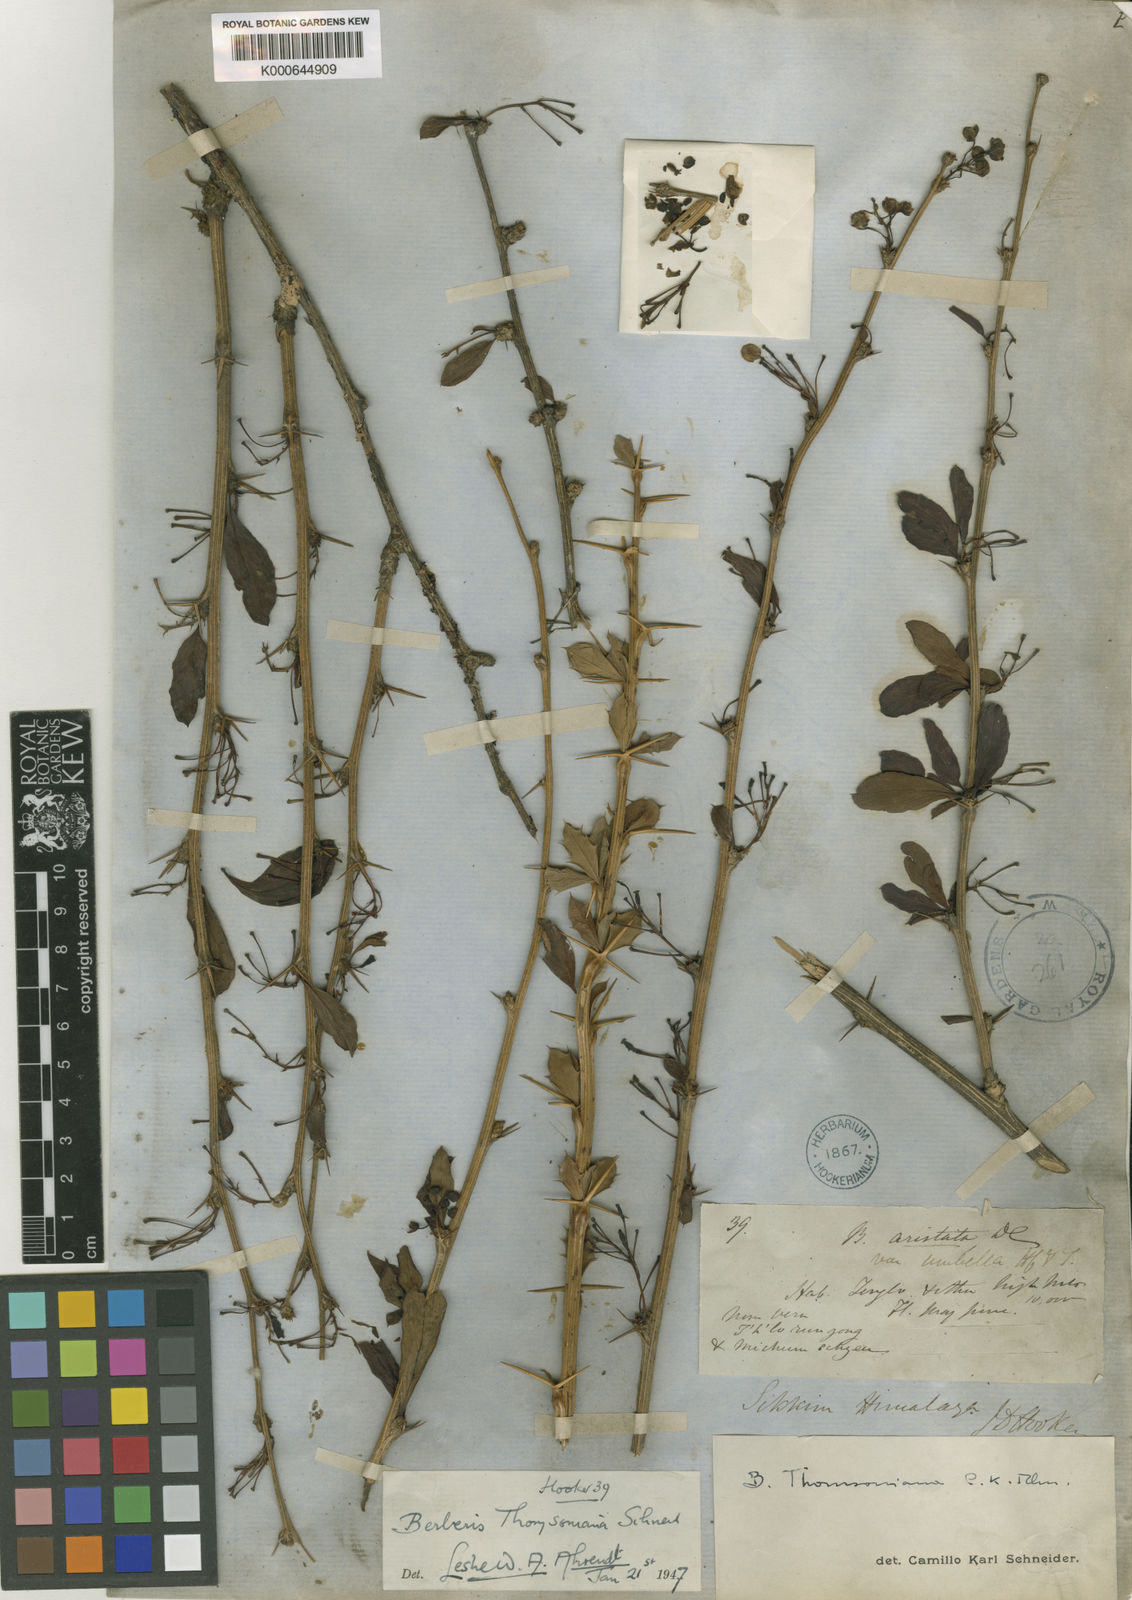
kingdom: Plantae
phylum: Tracheophyta
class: Magnoliopsida
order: Ranunculales
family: Berberidaceae
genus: Berberis
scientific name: Berberis thomsoniana
